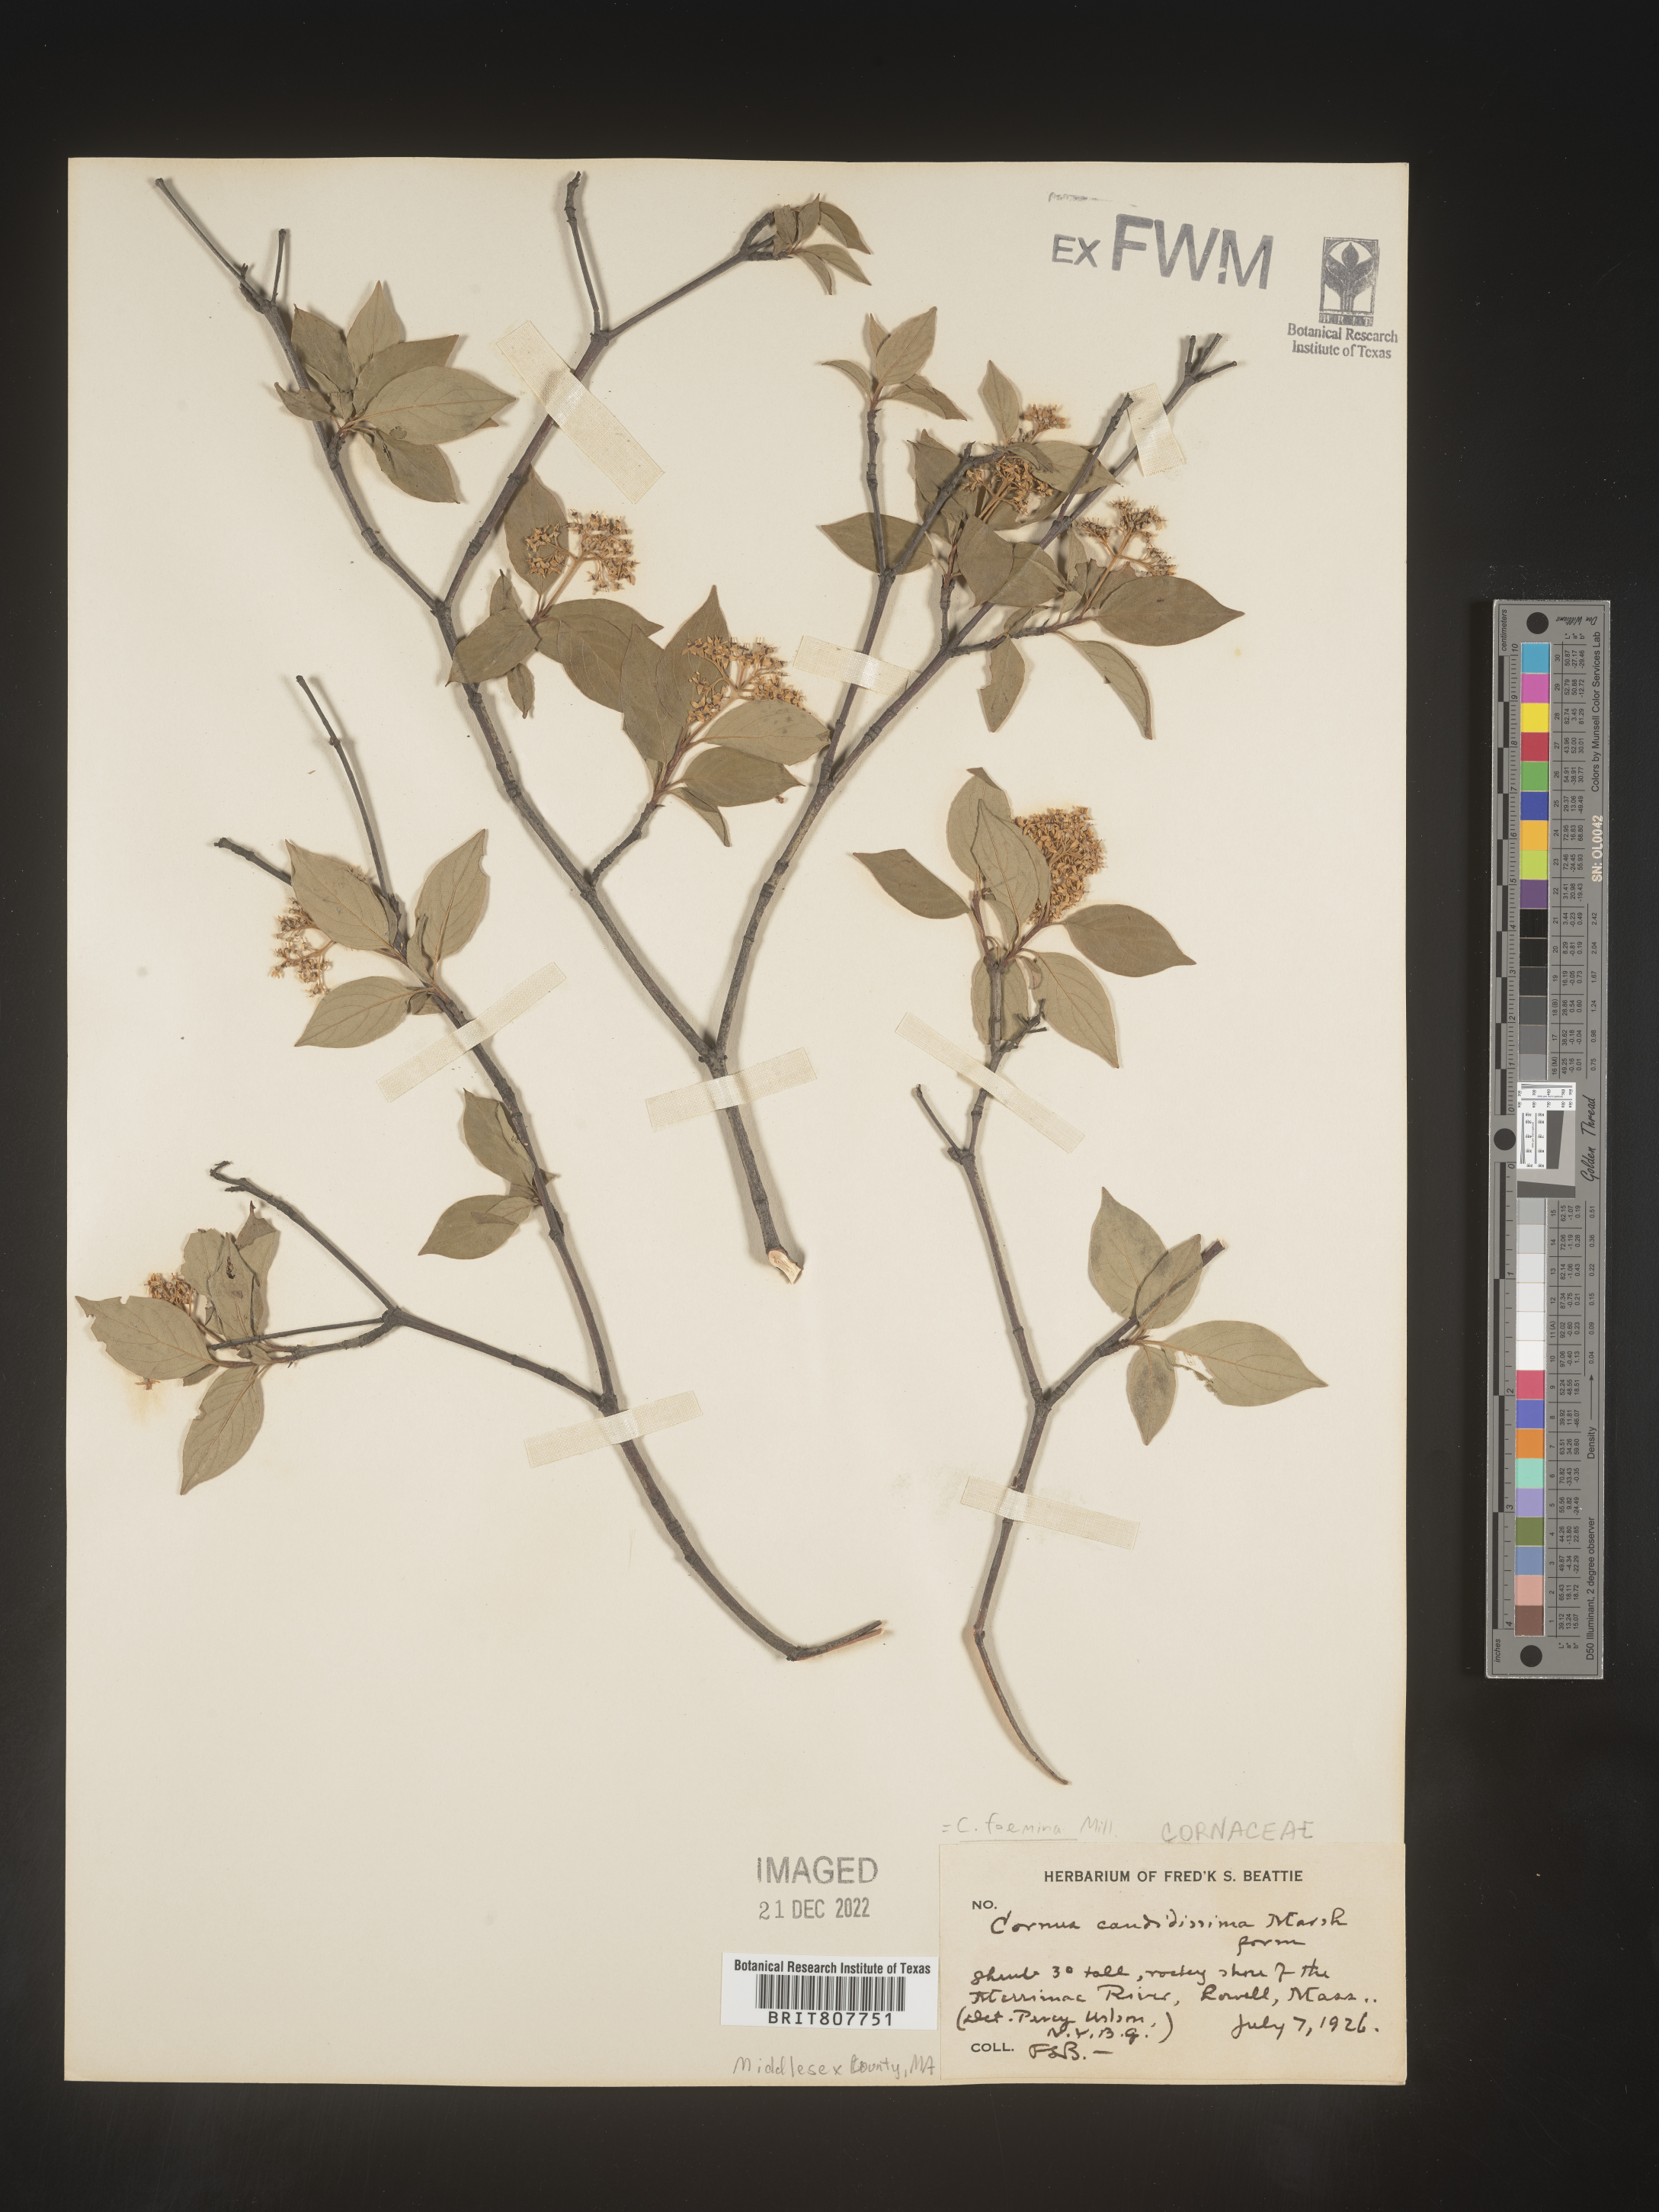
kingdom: Plantae
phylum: Tracheophyta
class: Magnoliopsida
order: Cornales
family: Cornaceae
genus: Cornus
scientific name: Cornus foemina
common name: Swamp dogwood
